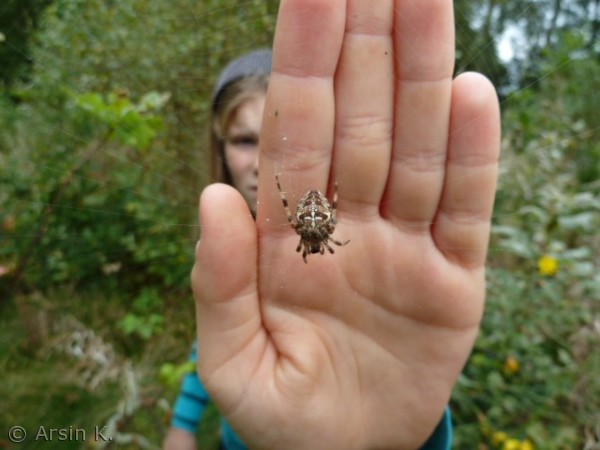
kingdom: Animalia
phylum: Arthropoda
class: Arachnida
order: Araneae
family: Araneidae
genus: Araneus
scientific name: Araneus diadematus
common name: Korsedderkop
